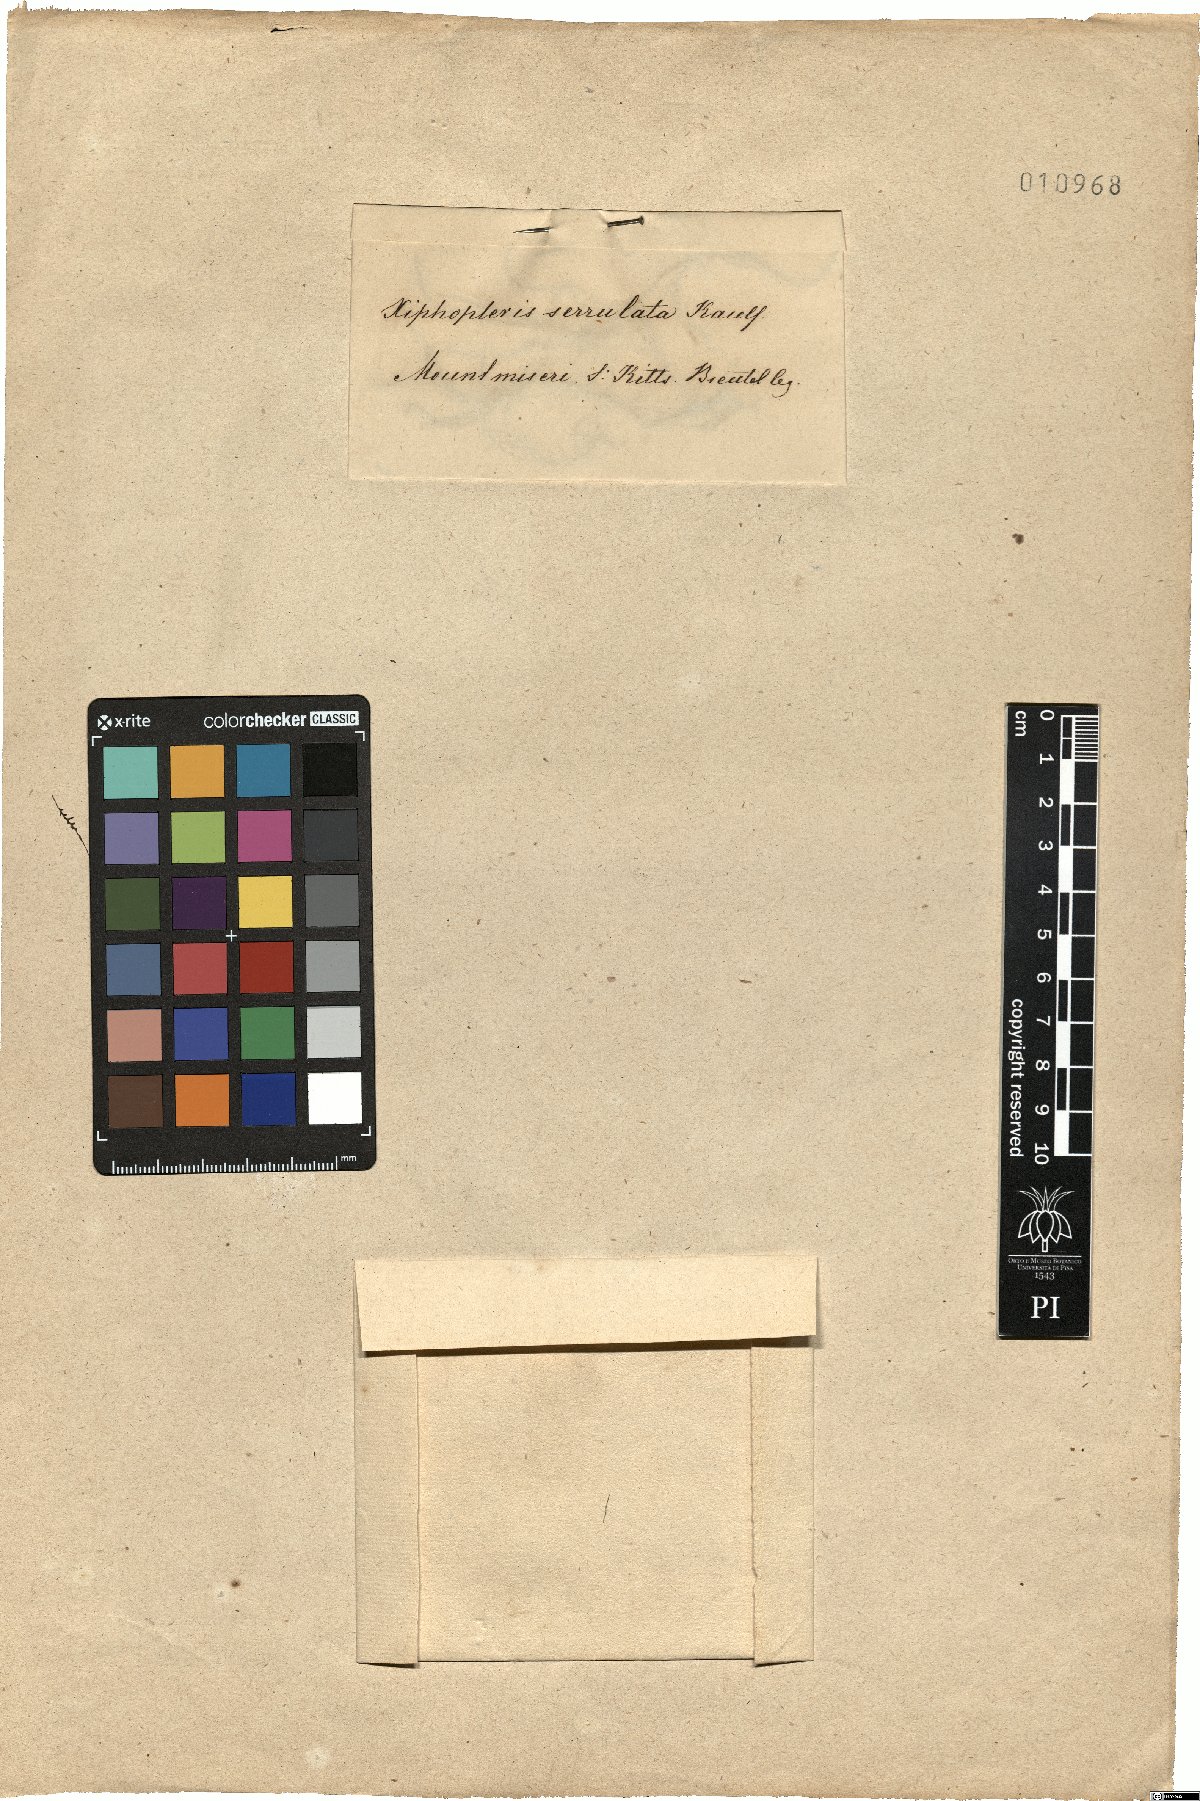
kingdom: Plantae
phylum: Tracheophyta
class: Polypodiopsida
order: Polypodiales
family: Polypodiaceae
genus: Cochlidium
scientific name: Cochlidium serrulatum
